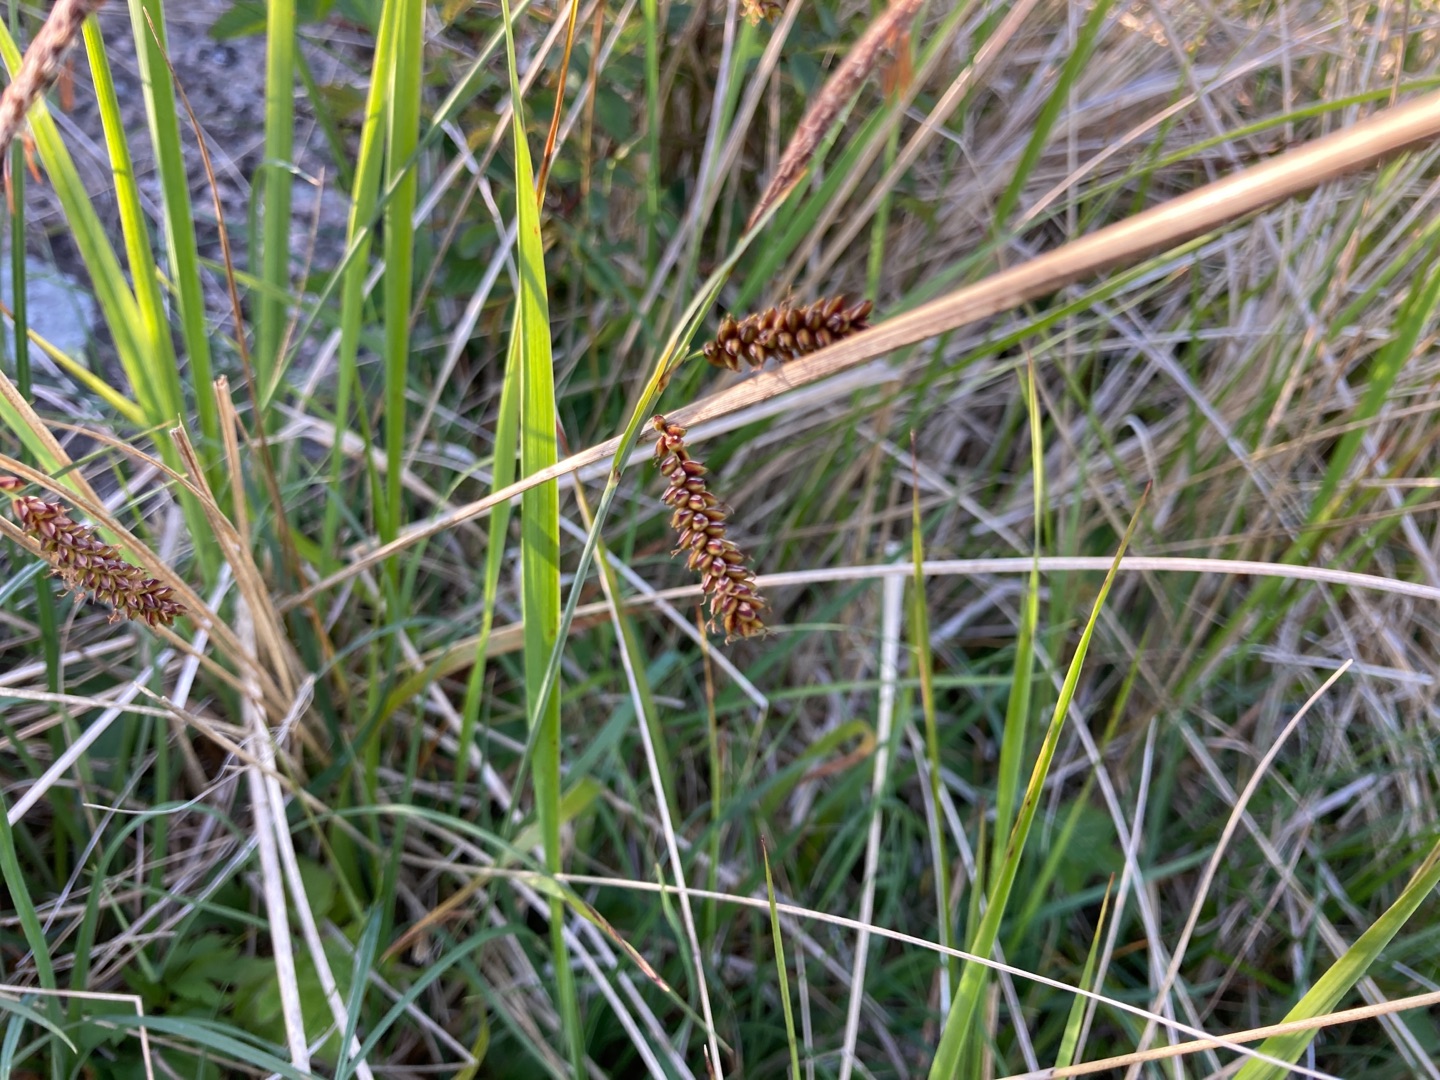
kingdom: Plantae
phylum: Tracheophyta
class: Liliopsida
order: Poales
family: Cyperaceae
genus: Carex
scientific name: Carex flacca
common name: Blågrøn star
